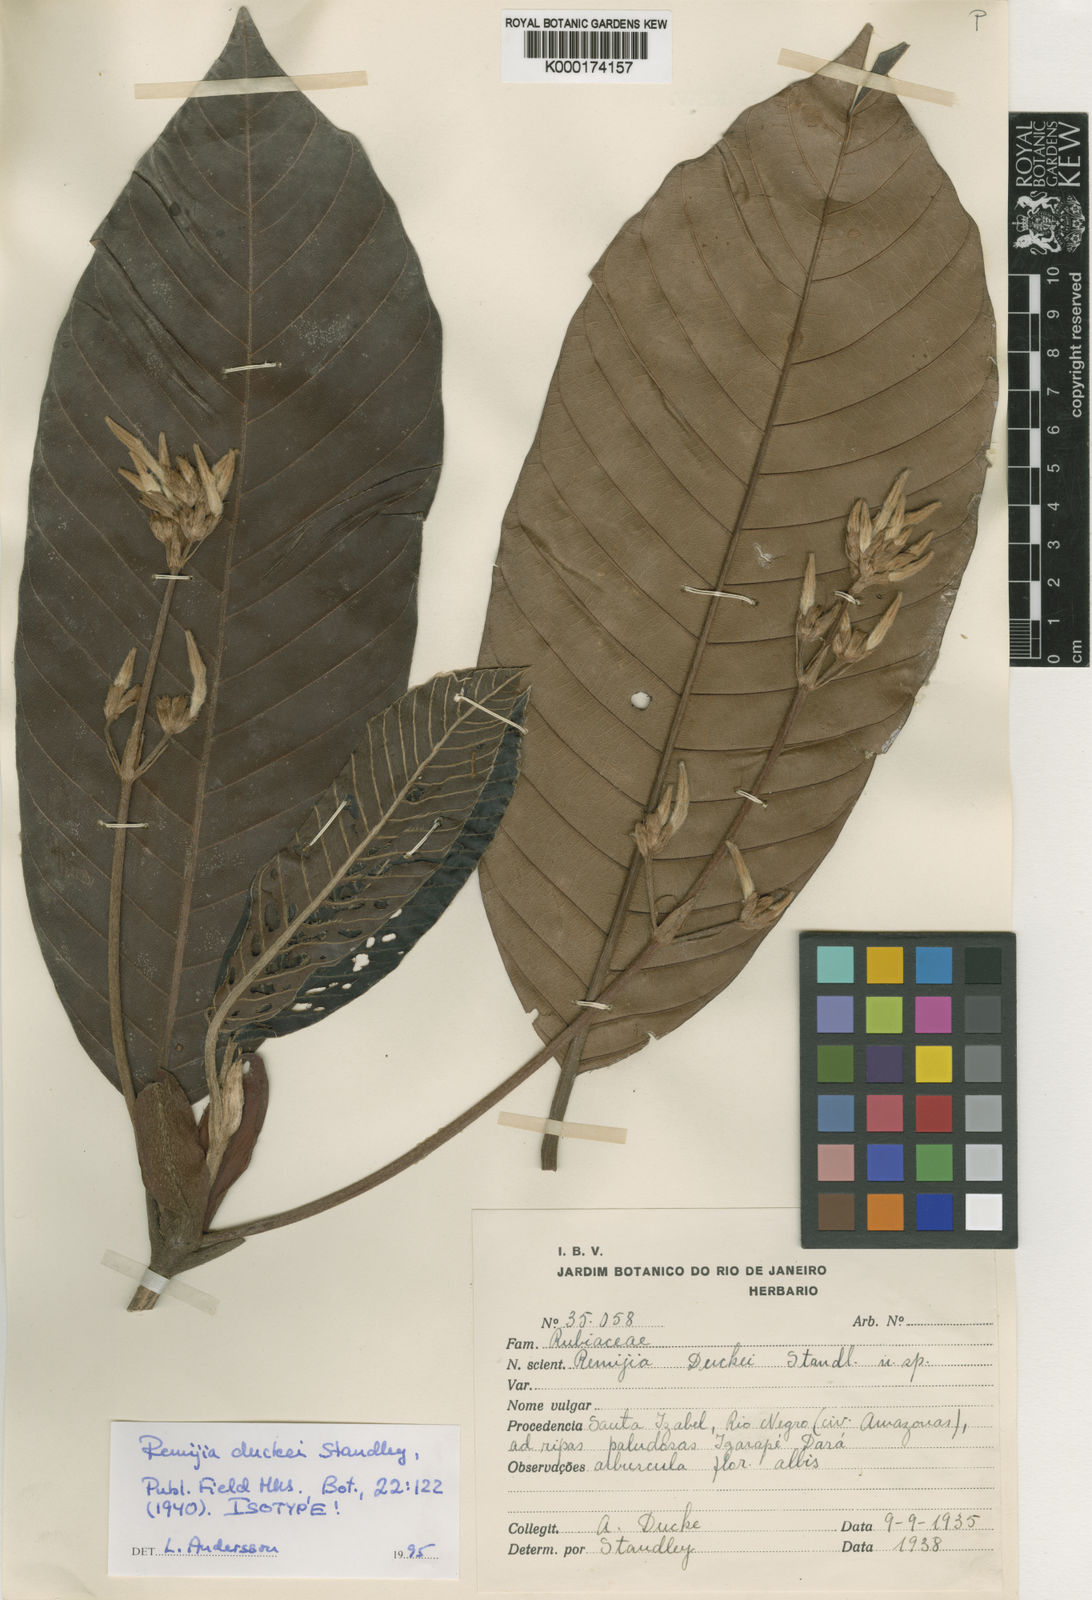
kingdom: Plantae
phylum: Tracheophyta
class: Magnoliopsida
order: Gentianales
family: Rubiaceae
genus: Remijia
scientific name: Remijia duckei
